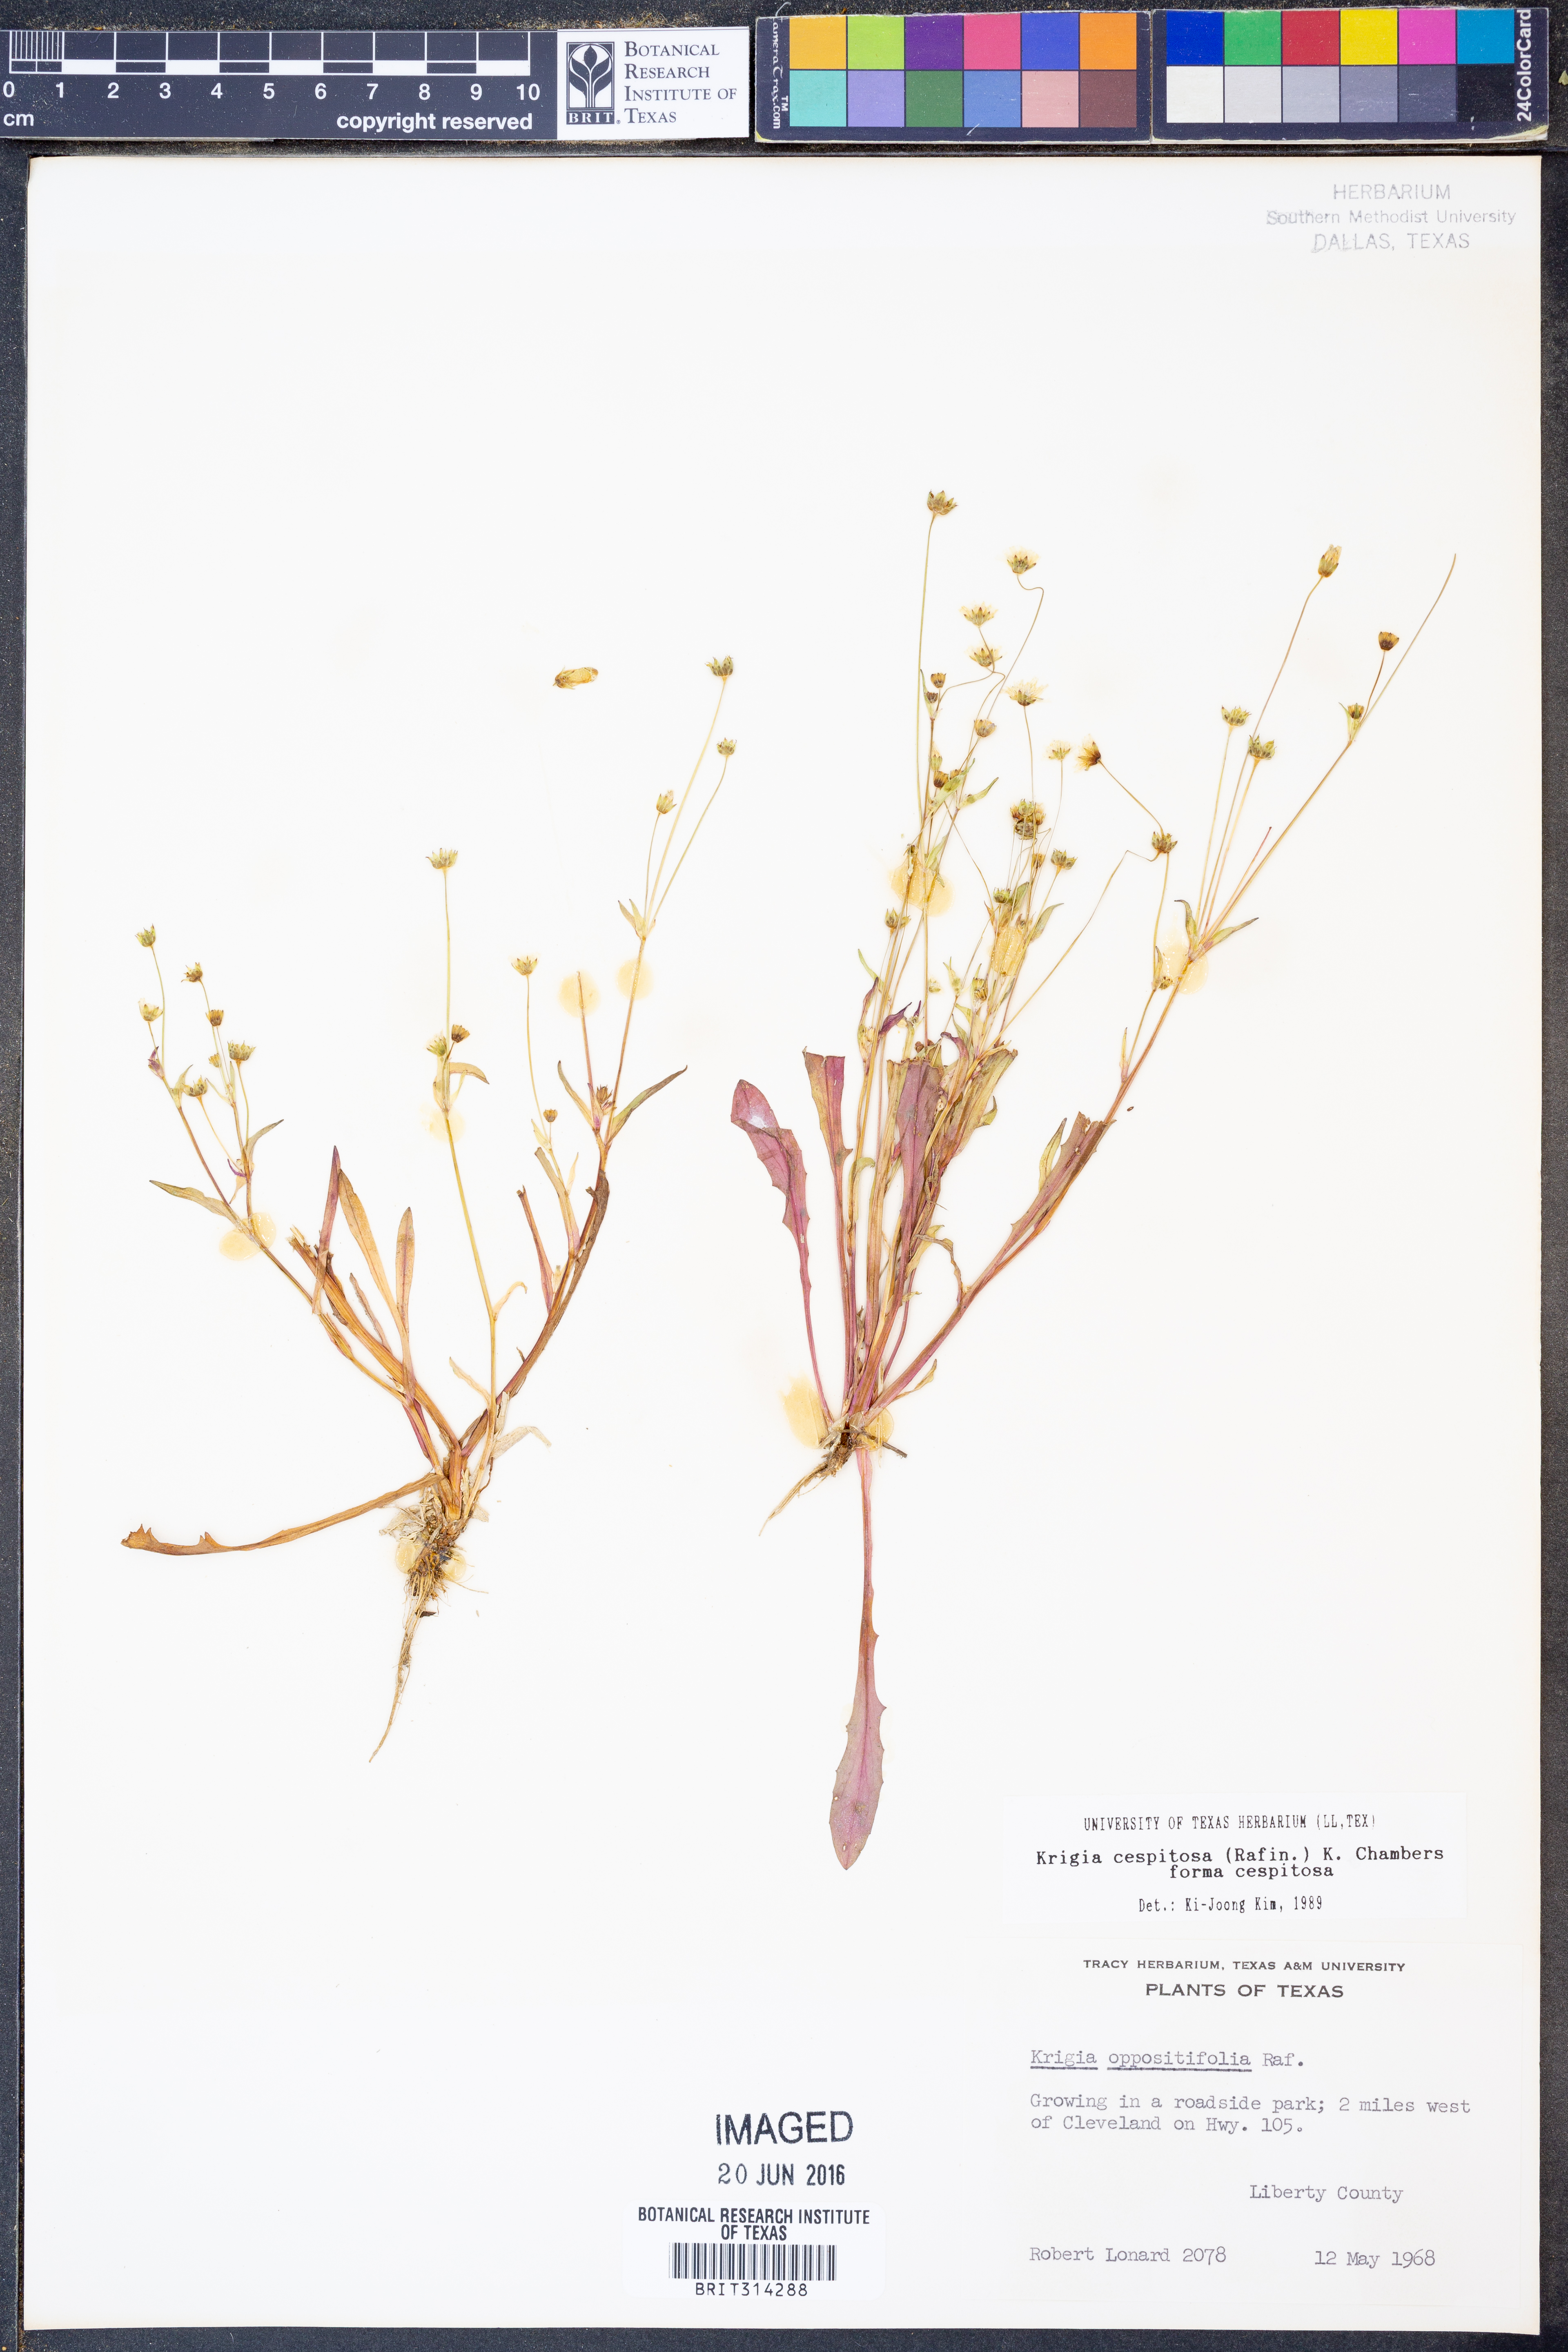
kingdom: Plantae
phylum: Tracheophyta
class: Magnoliopsida
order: Asterales
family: Asteraceae
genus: Krigia
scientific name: Krigia cespitosa
